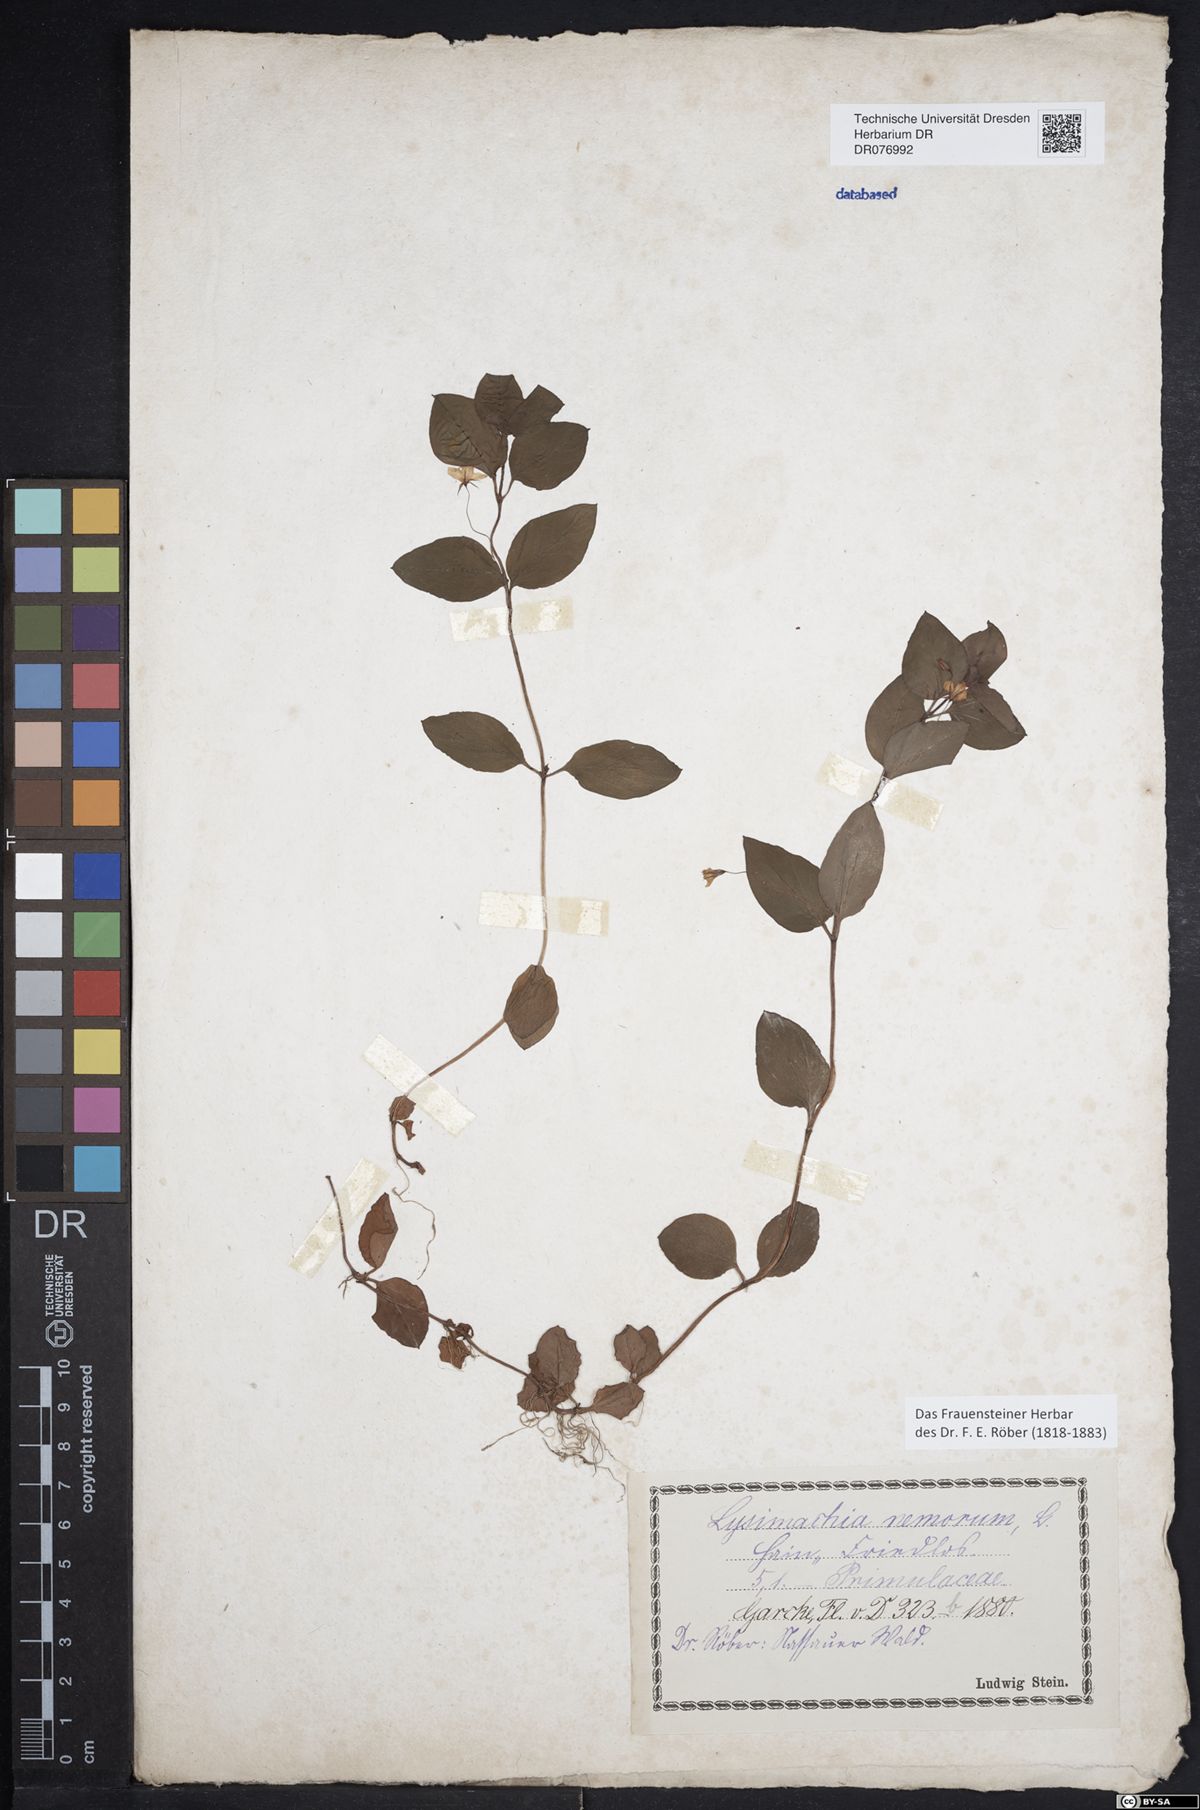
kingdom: Plantae
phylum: Tracheophyta
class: Magnoliopsida
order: Ericales
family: Primulaceae
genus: Lysimachia
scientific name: Lysimachia nemorum
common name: Yellow pimpernel
